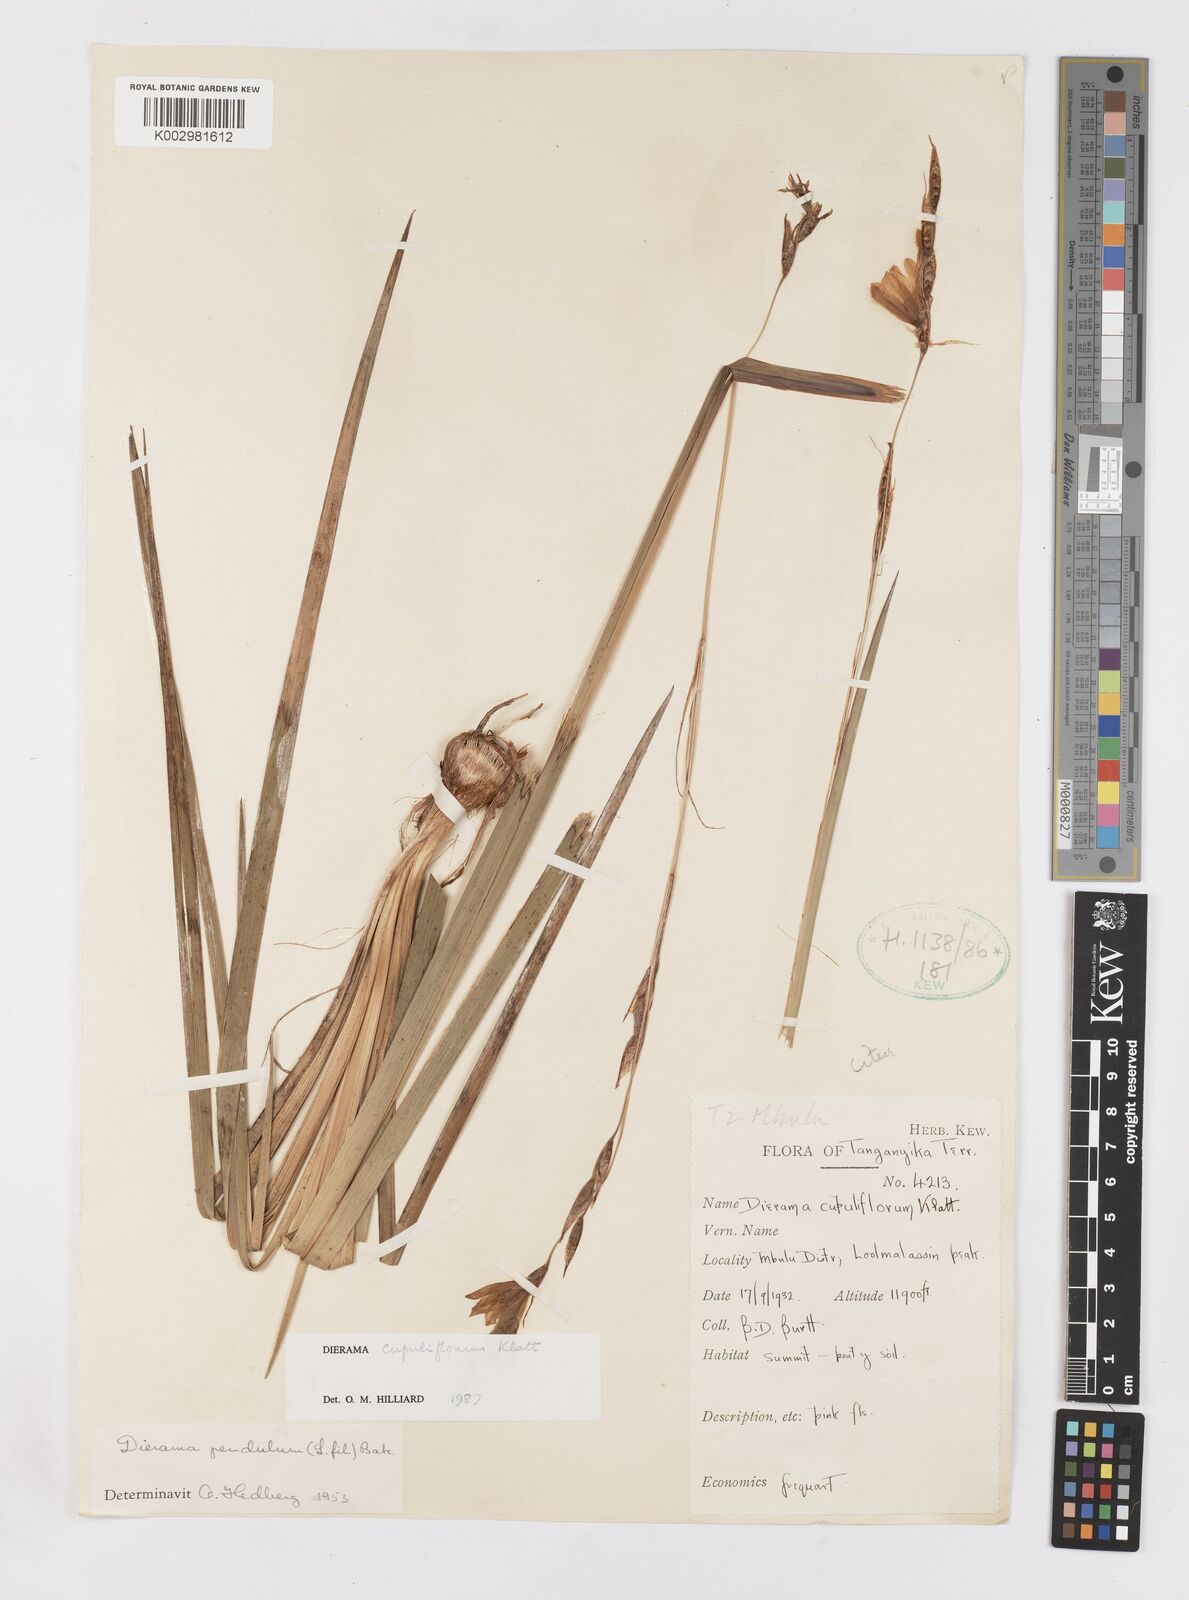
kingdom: Plantae
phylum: Tracheophyta
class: Liliopsida
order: Asparagales
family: Iridaceae
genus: Dierama
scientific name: Dierama cupuliflorum
